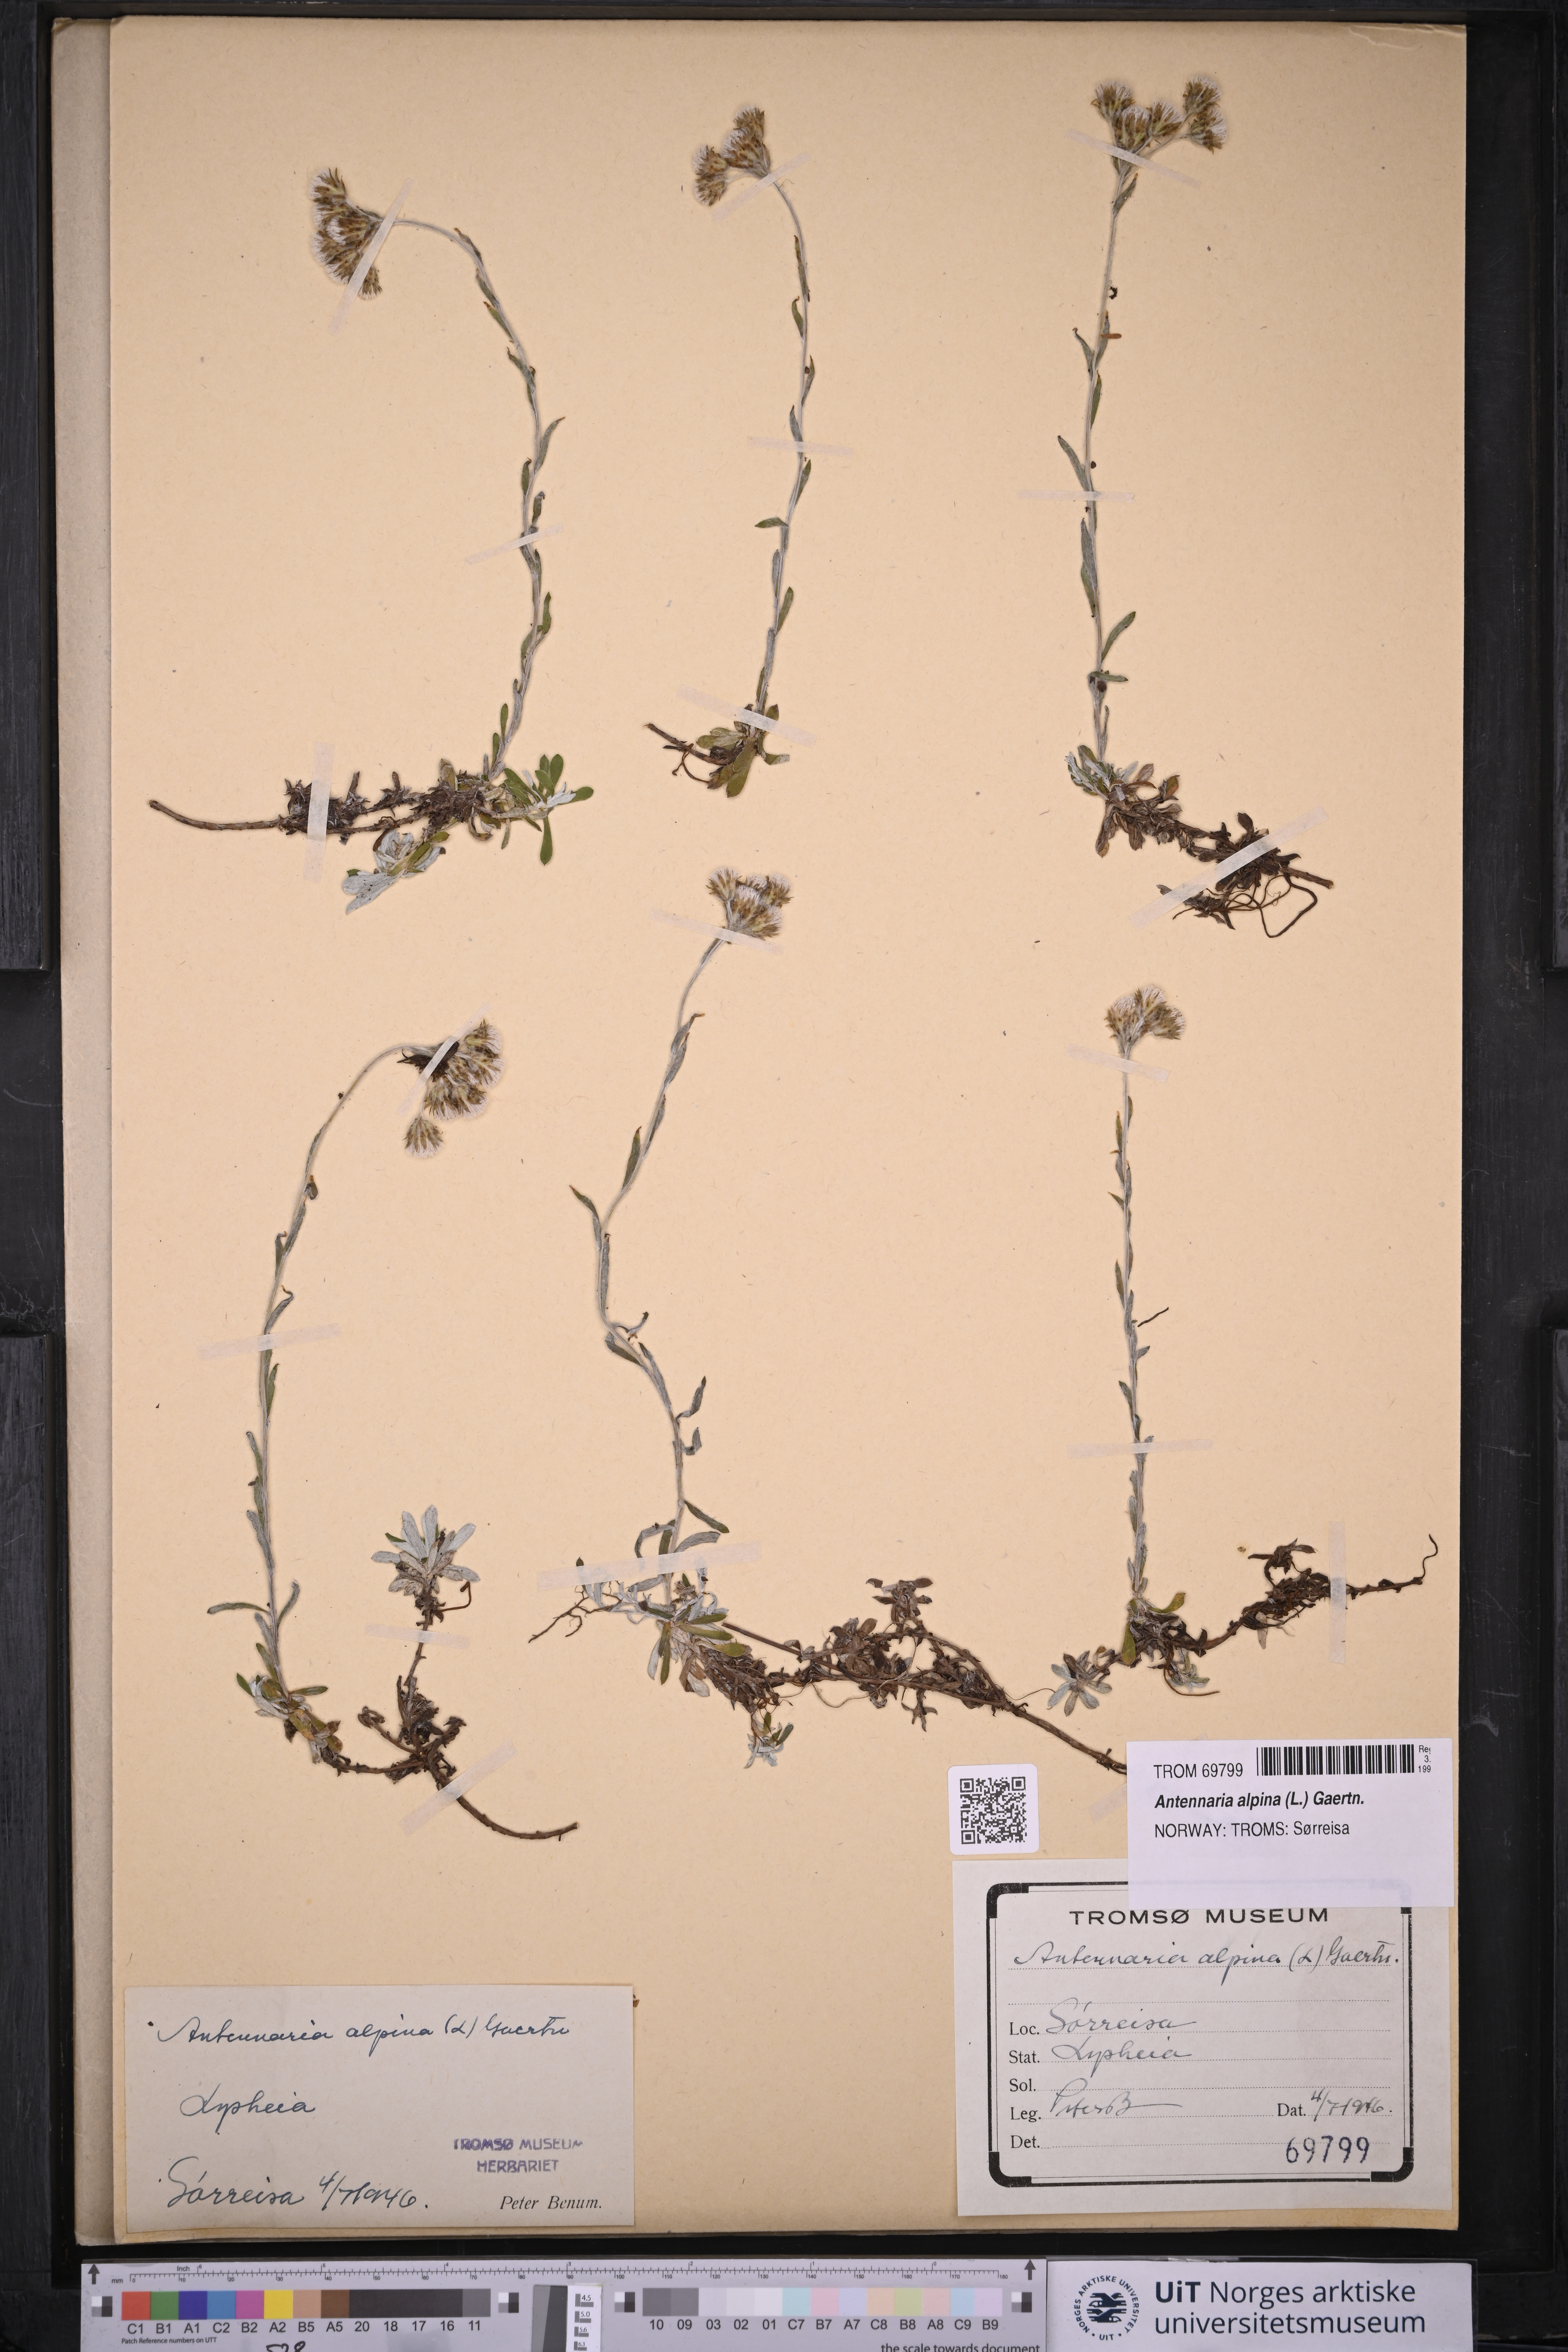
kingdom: Plantae
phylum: Tracheophyta
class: Magnoliopsida
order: Asterales
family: Asteraceae
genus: Antennaria
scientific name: Antennaria alpina
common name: Alpine pussytoes
